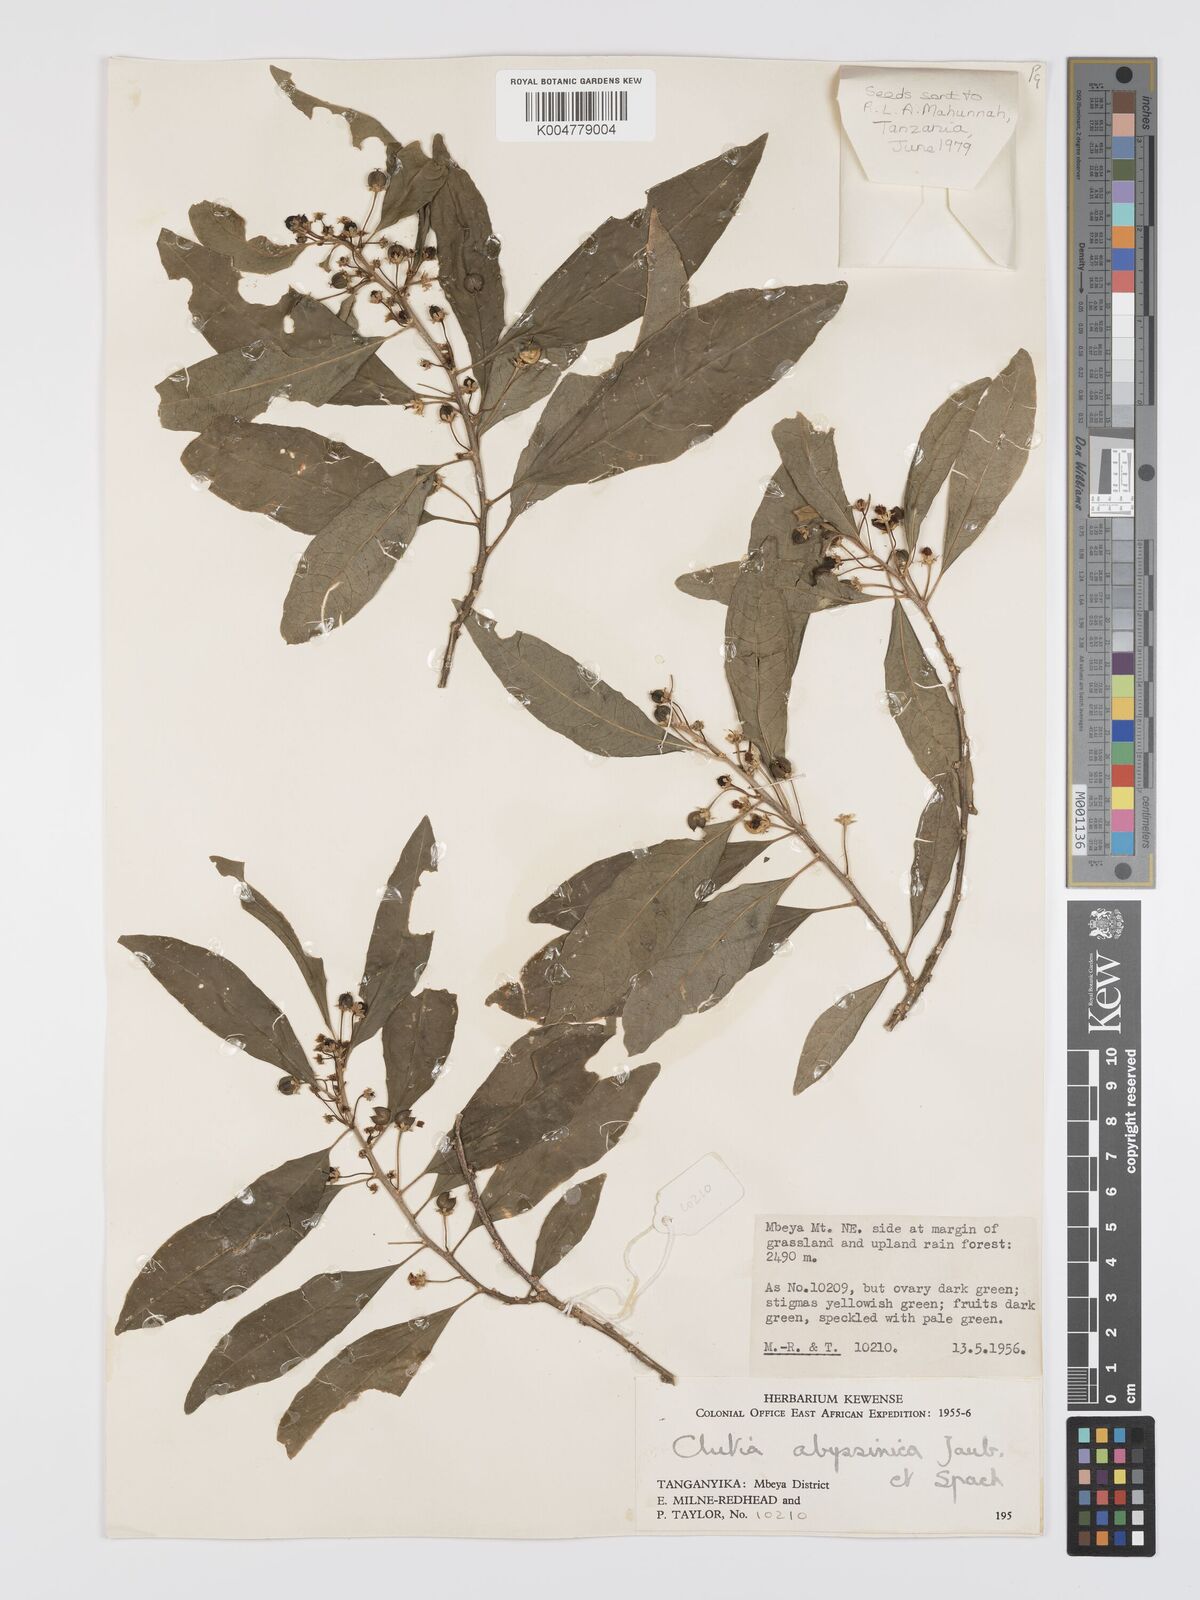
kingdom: Plantae
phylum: Tracheophyta
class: Magnoliopsida
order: Malpighiales
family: Peraceae
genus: Clutia
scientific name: Clutia abyssinica
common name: Large lightning bush
